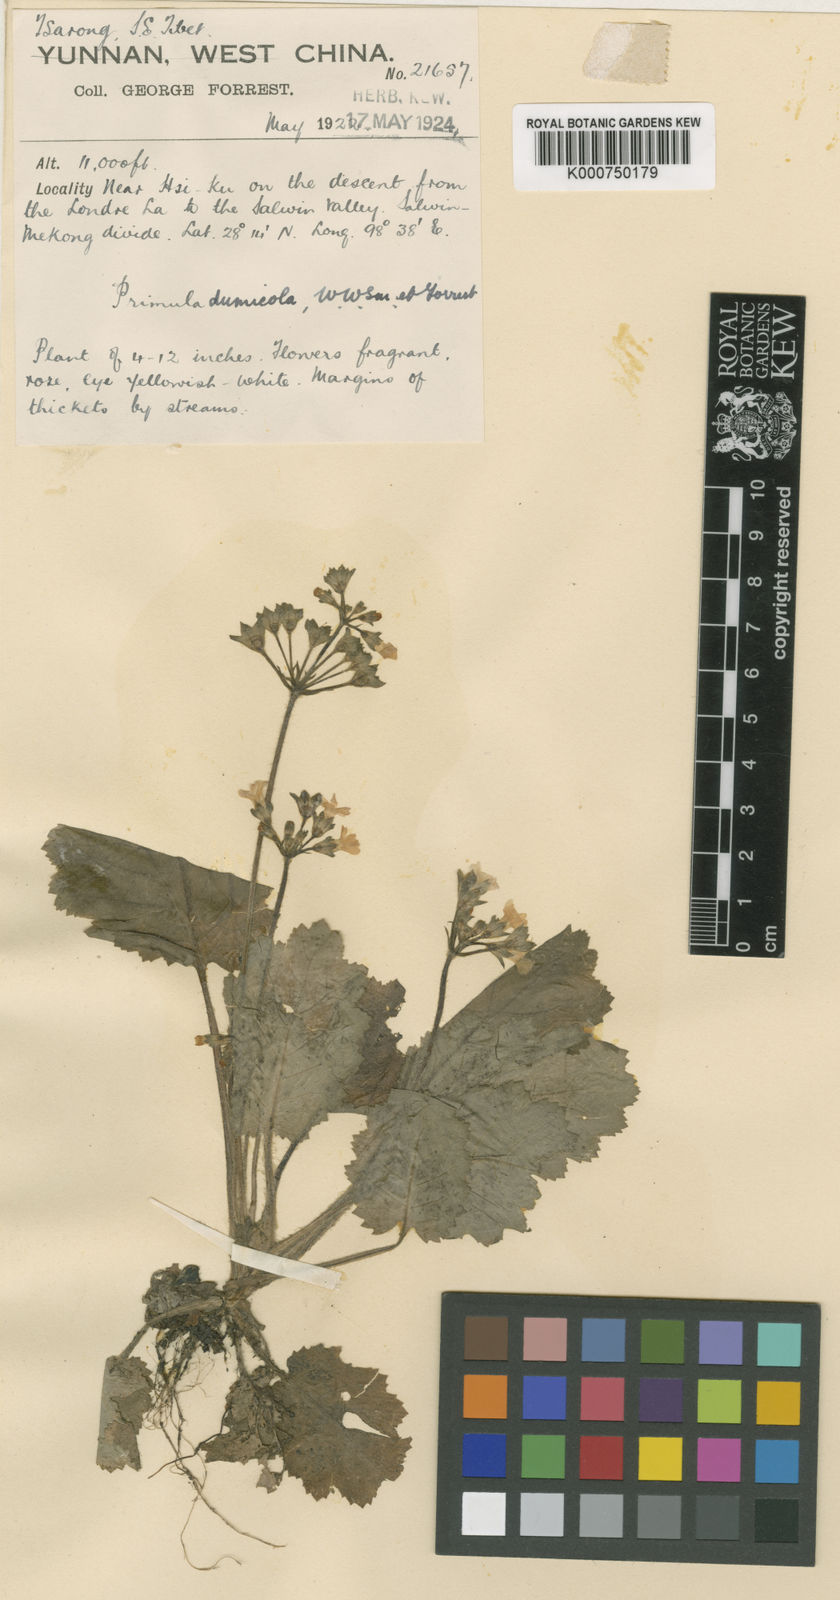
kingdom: Plantae
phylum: Tracheophyta
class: Magnoliopsida
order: Ericales
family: Primulaceae
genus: Primula
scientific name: Primula dumicola
